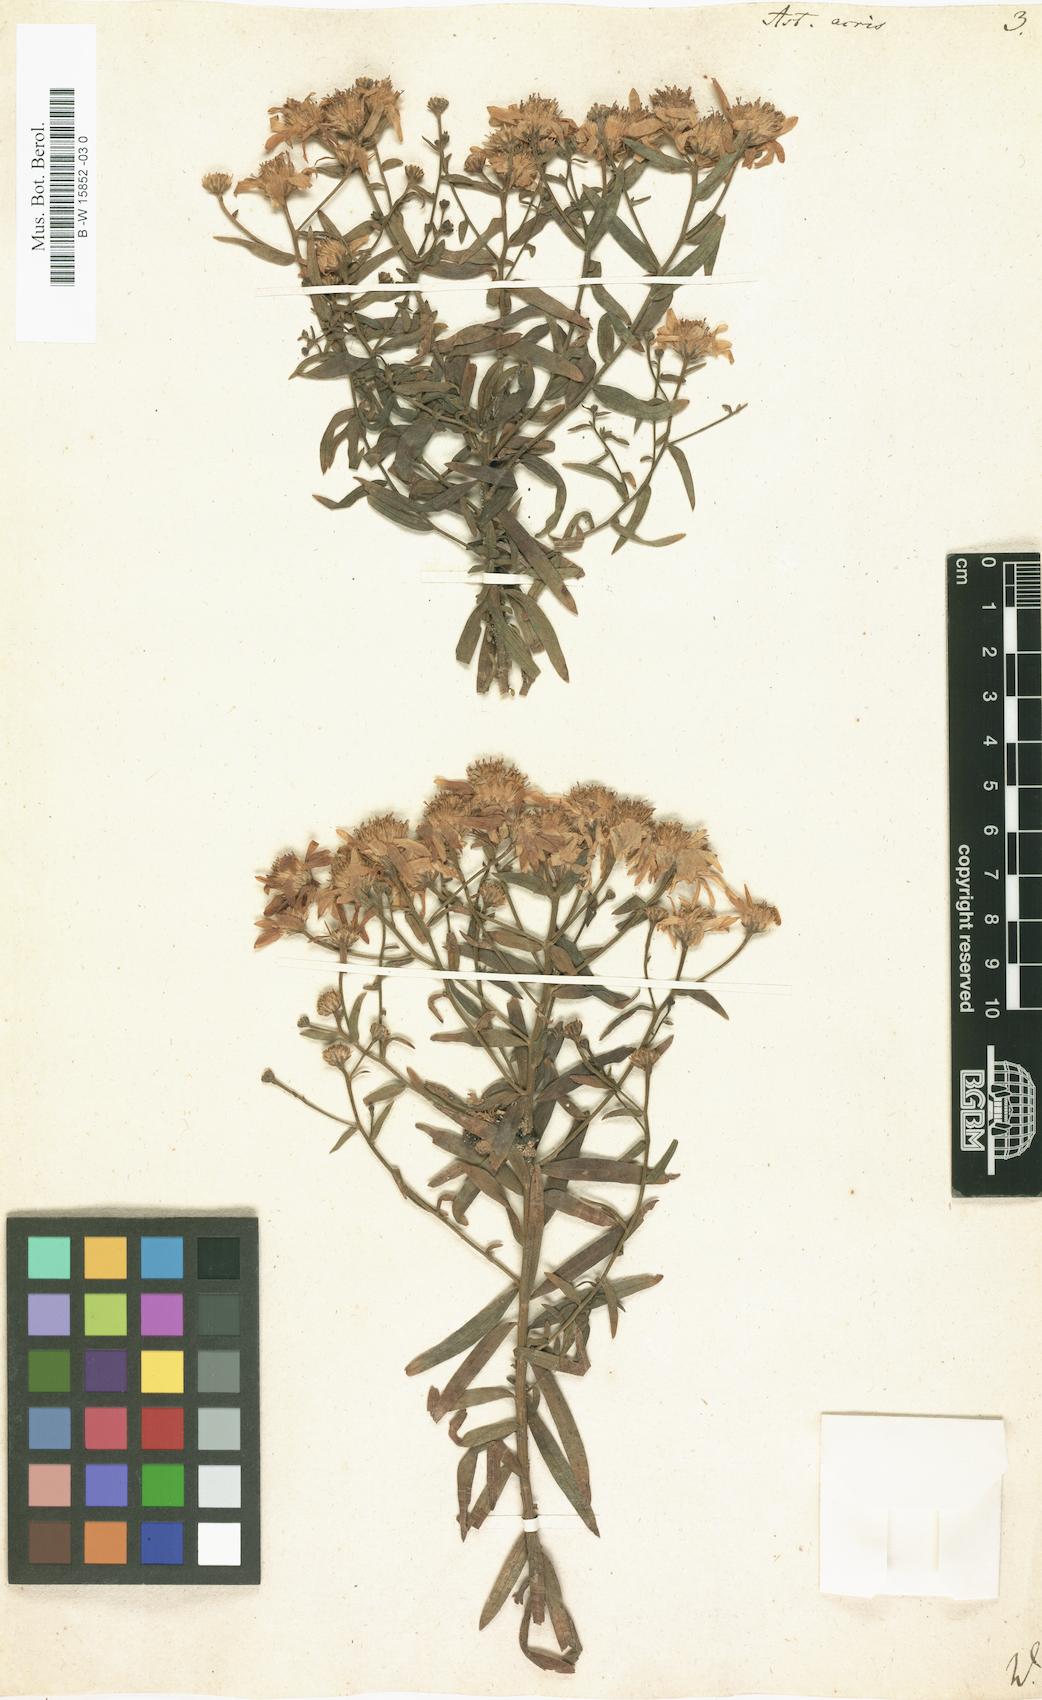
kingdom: Plantae
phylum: Tracheophyta
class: Magnoliopsida
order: Asterales
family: Asteraceae
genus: Aster
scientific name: Aster acris
